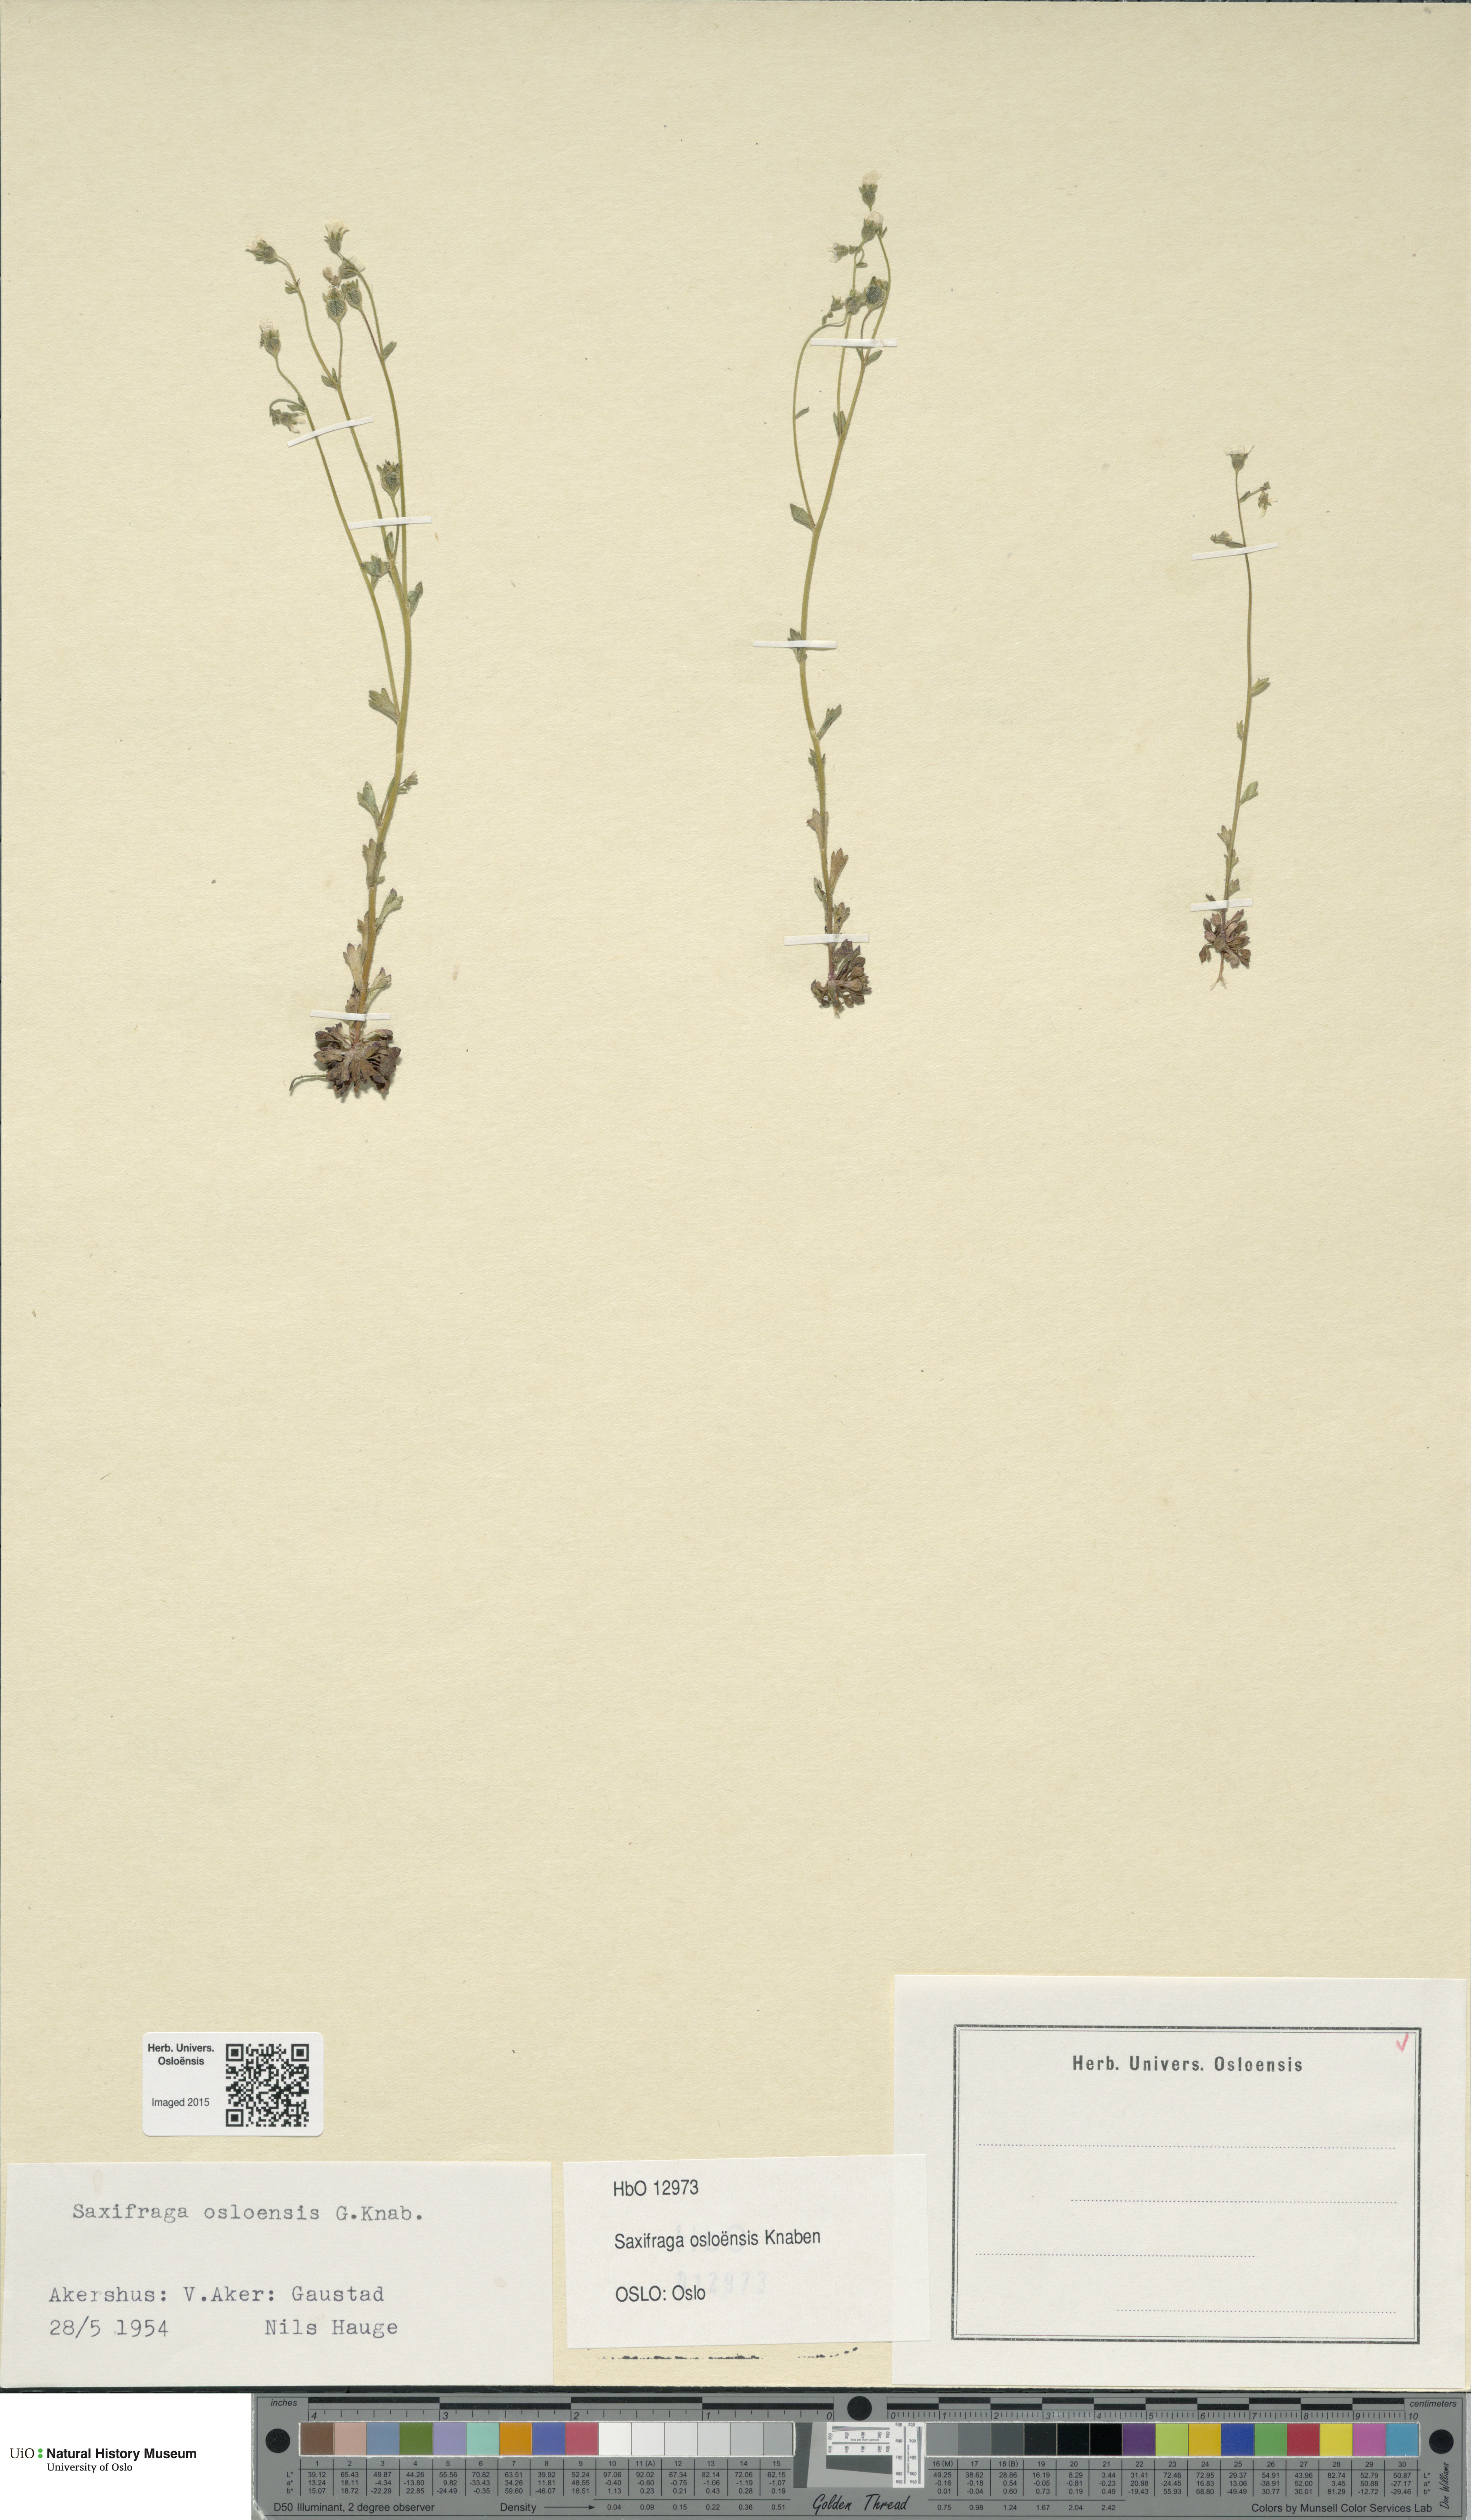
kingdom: Plantae
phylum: Tracheophyta
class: Magnoliopsida
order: Saxifragales
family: Saxifragaceae
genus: Saxifraga
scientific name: Saxifraga osloensis
